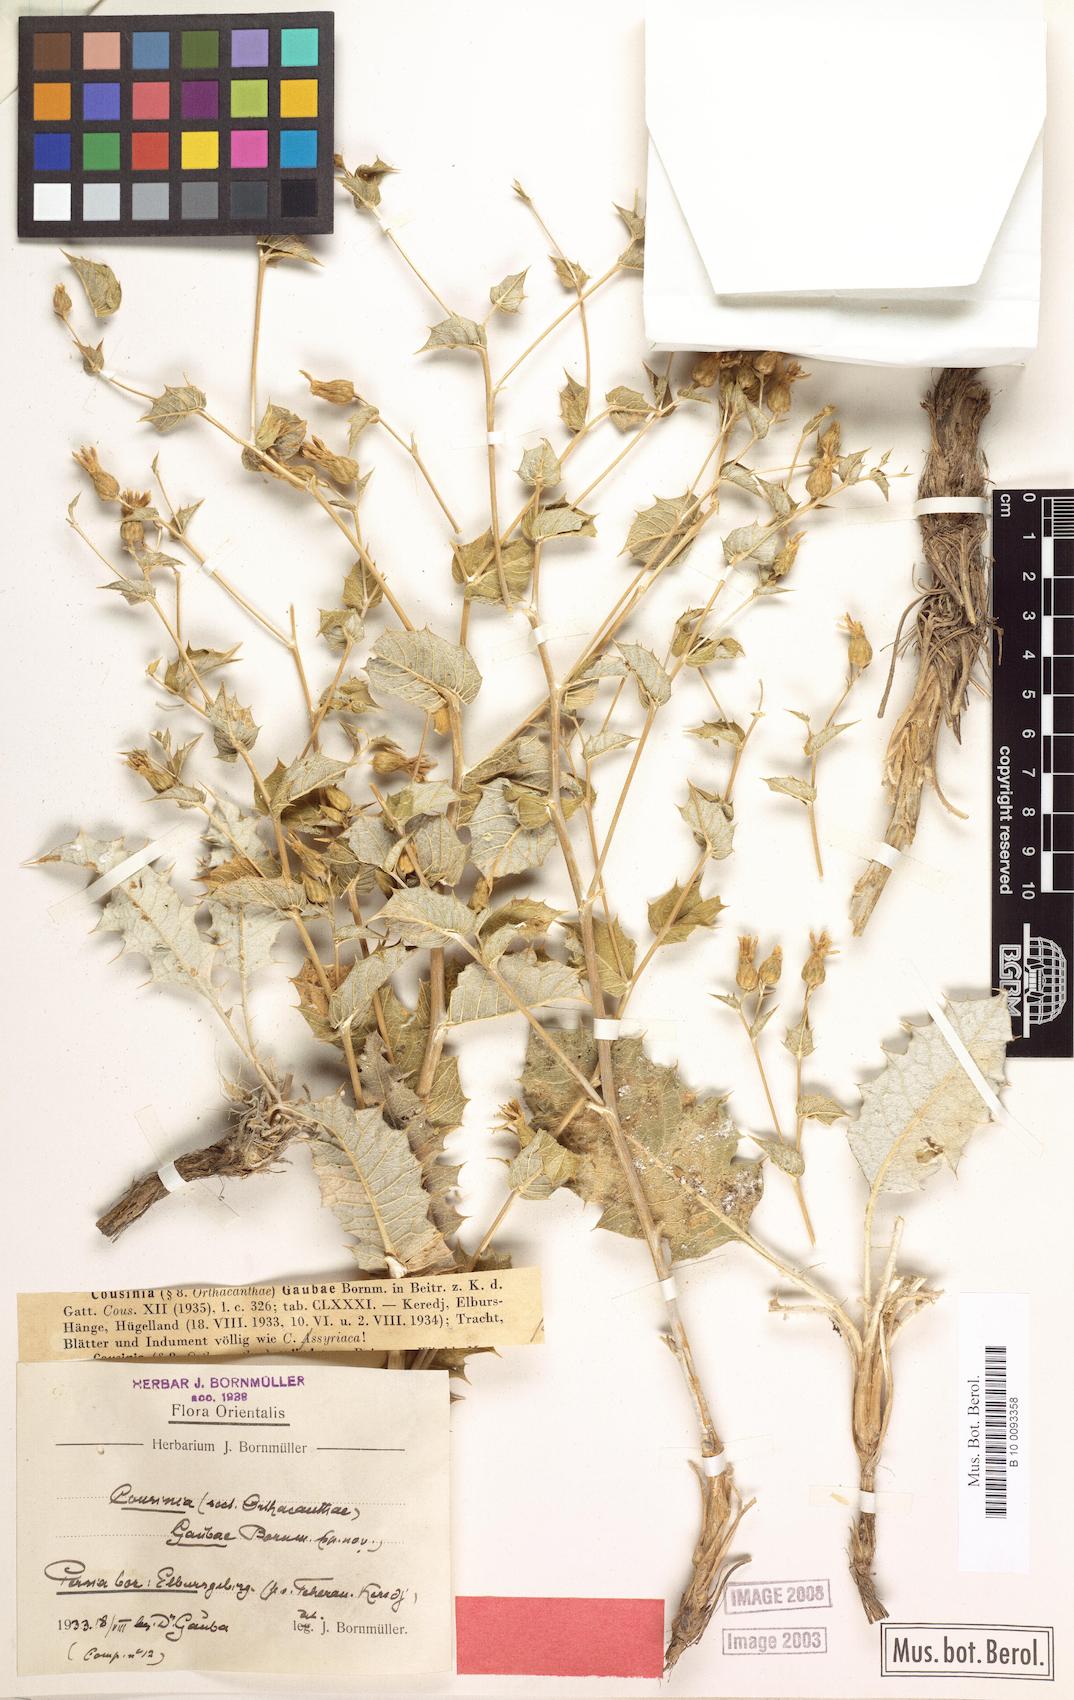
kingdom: Plantae
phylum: Tracheophyta
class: Magnoliopsida
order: Asterales
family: Asteraceae
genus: Cousinia
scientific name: Cousinia gaubae
